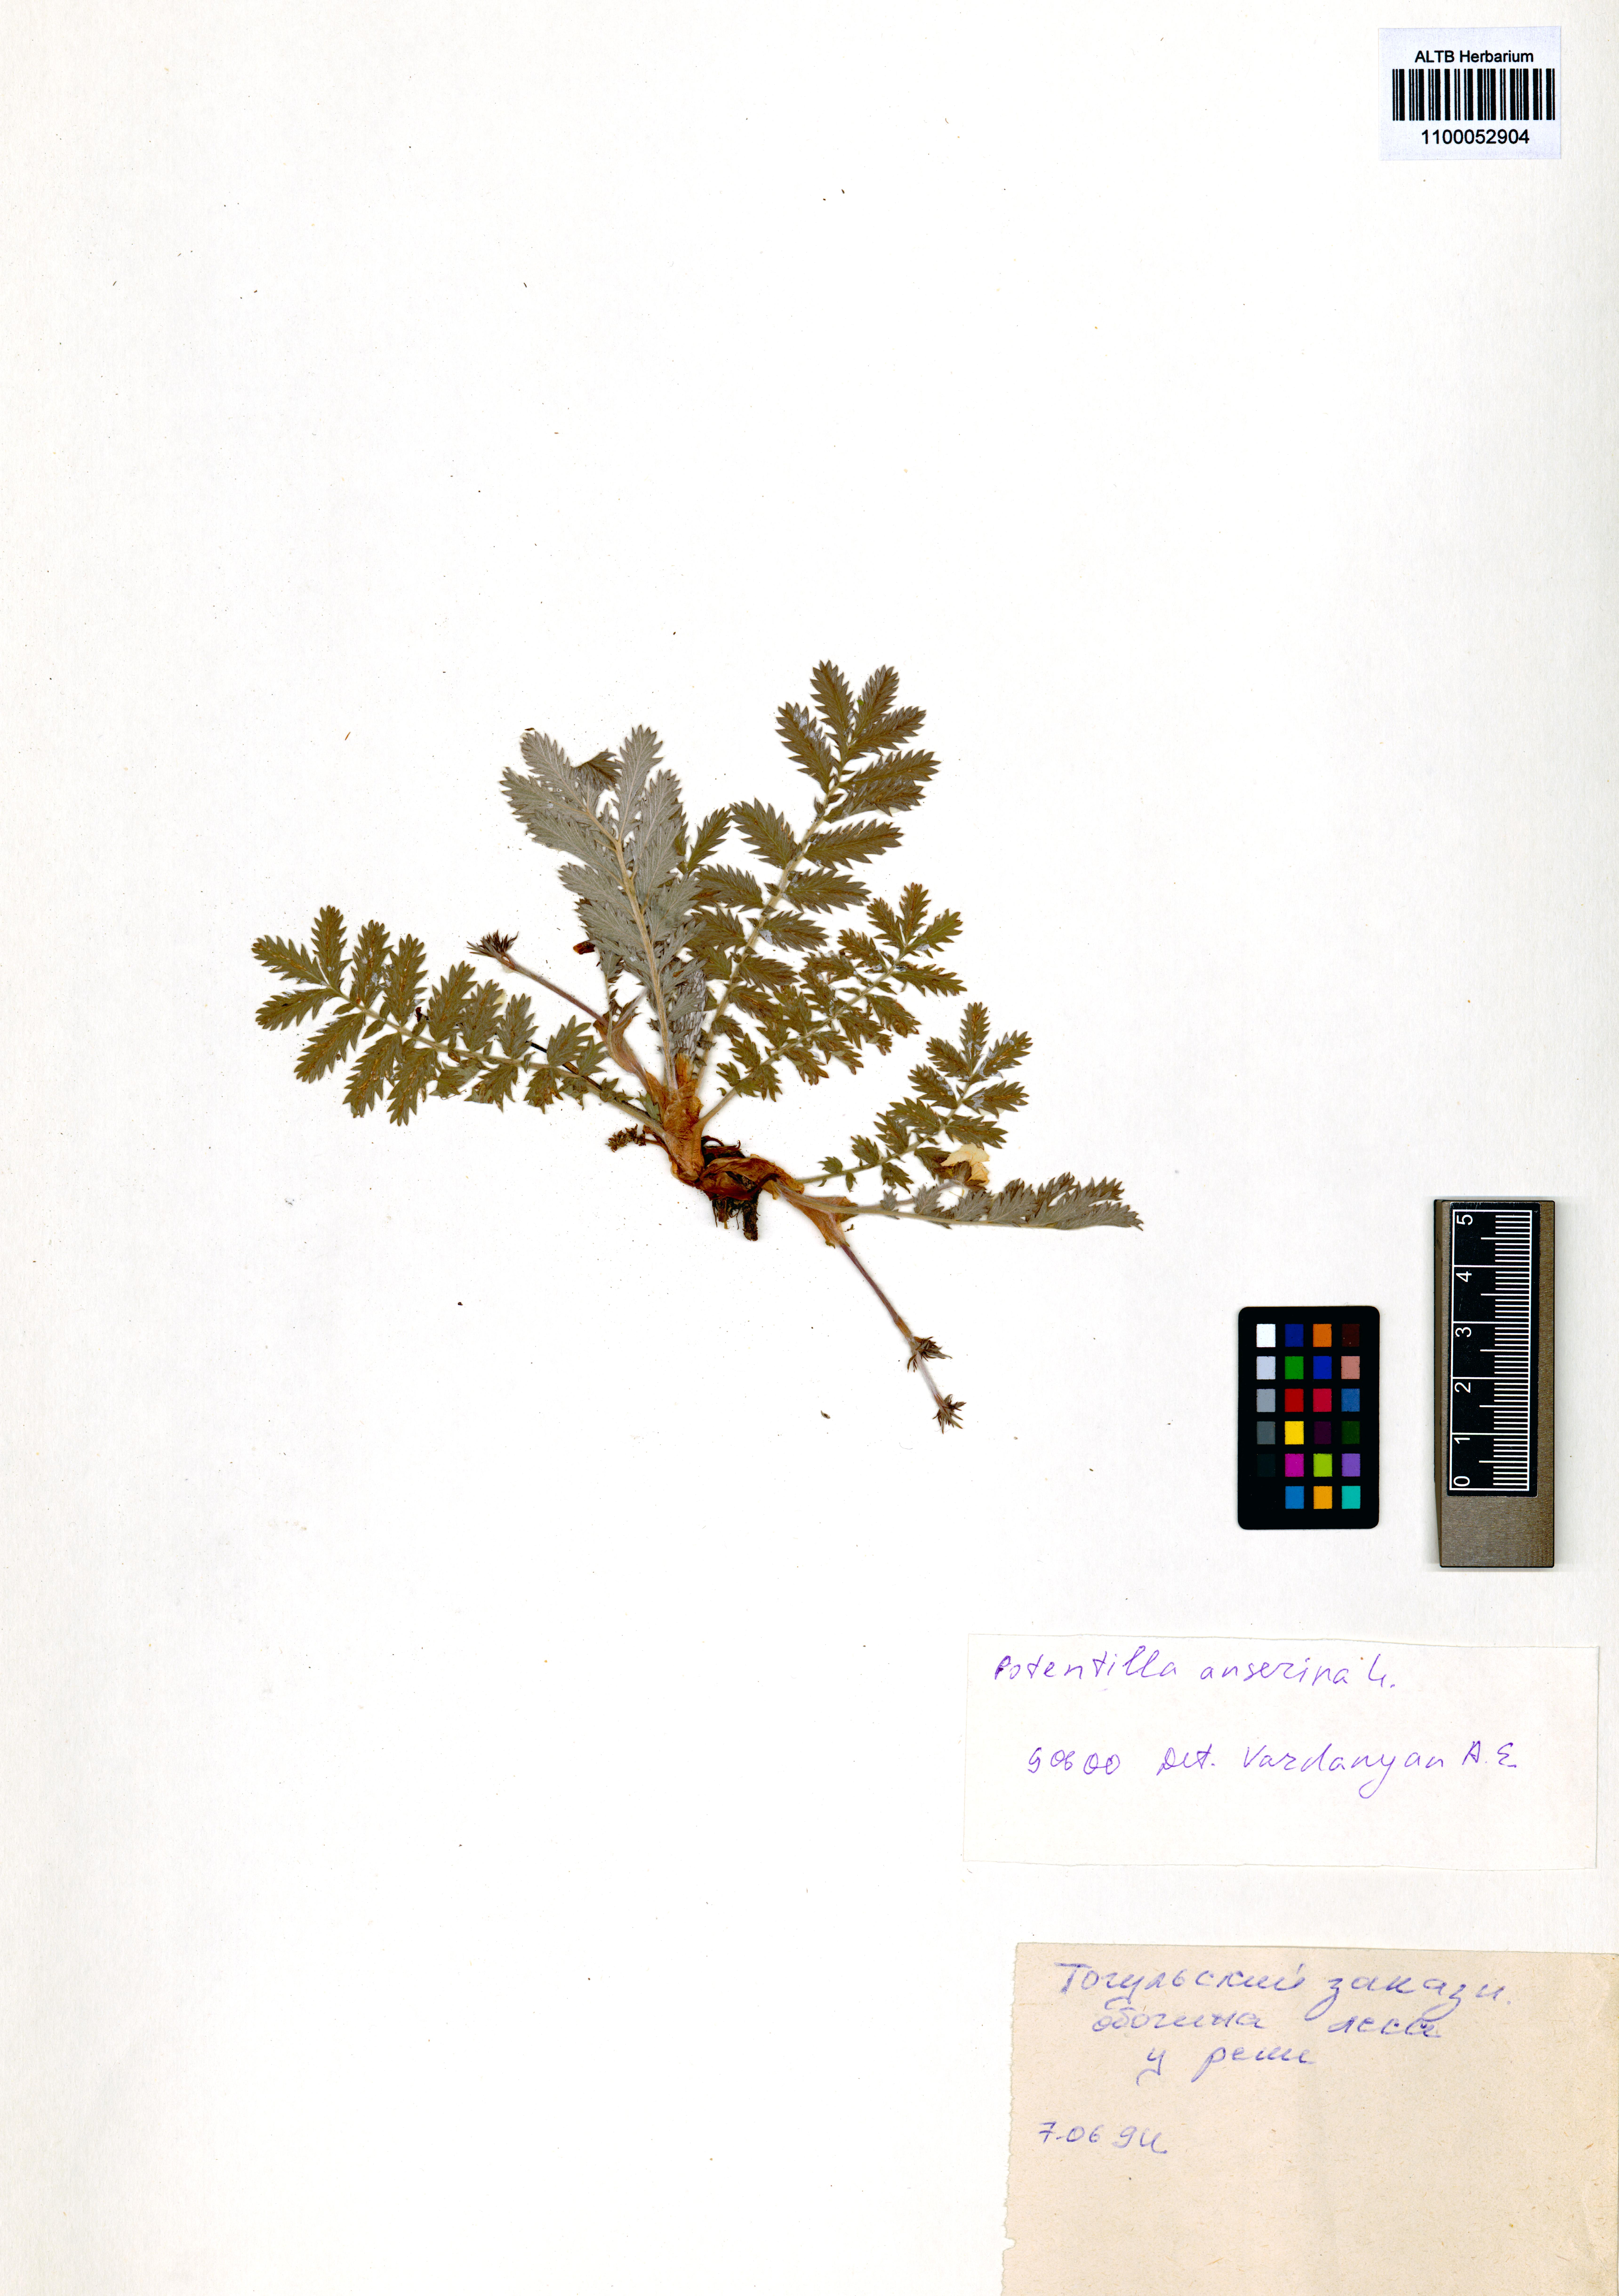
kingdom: Plantae
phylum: Tracheophyta
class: Magnoliopsida
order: Rosales
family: Rosaceae
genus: Argentina
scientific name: Argentina anserina
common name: Common silverweed
